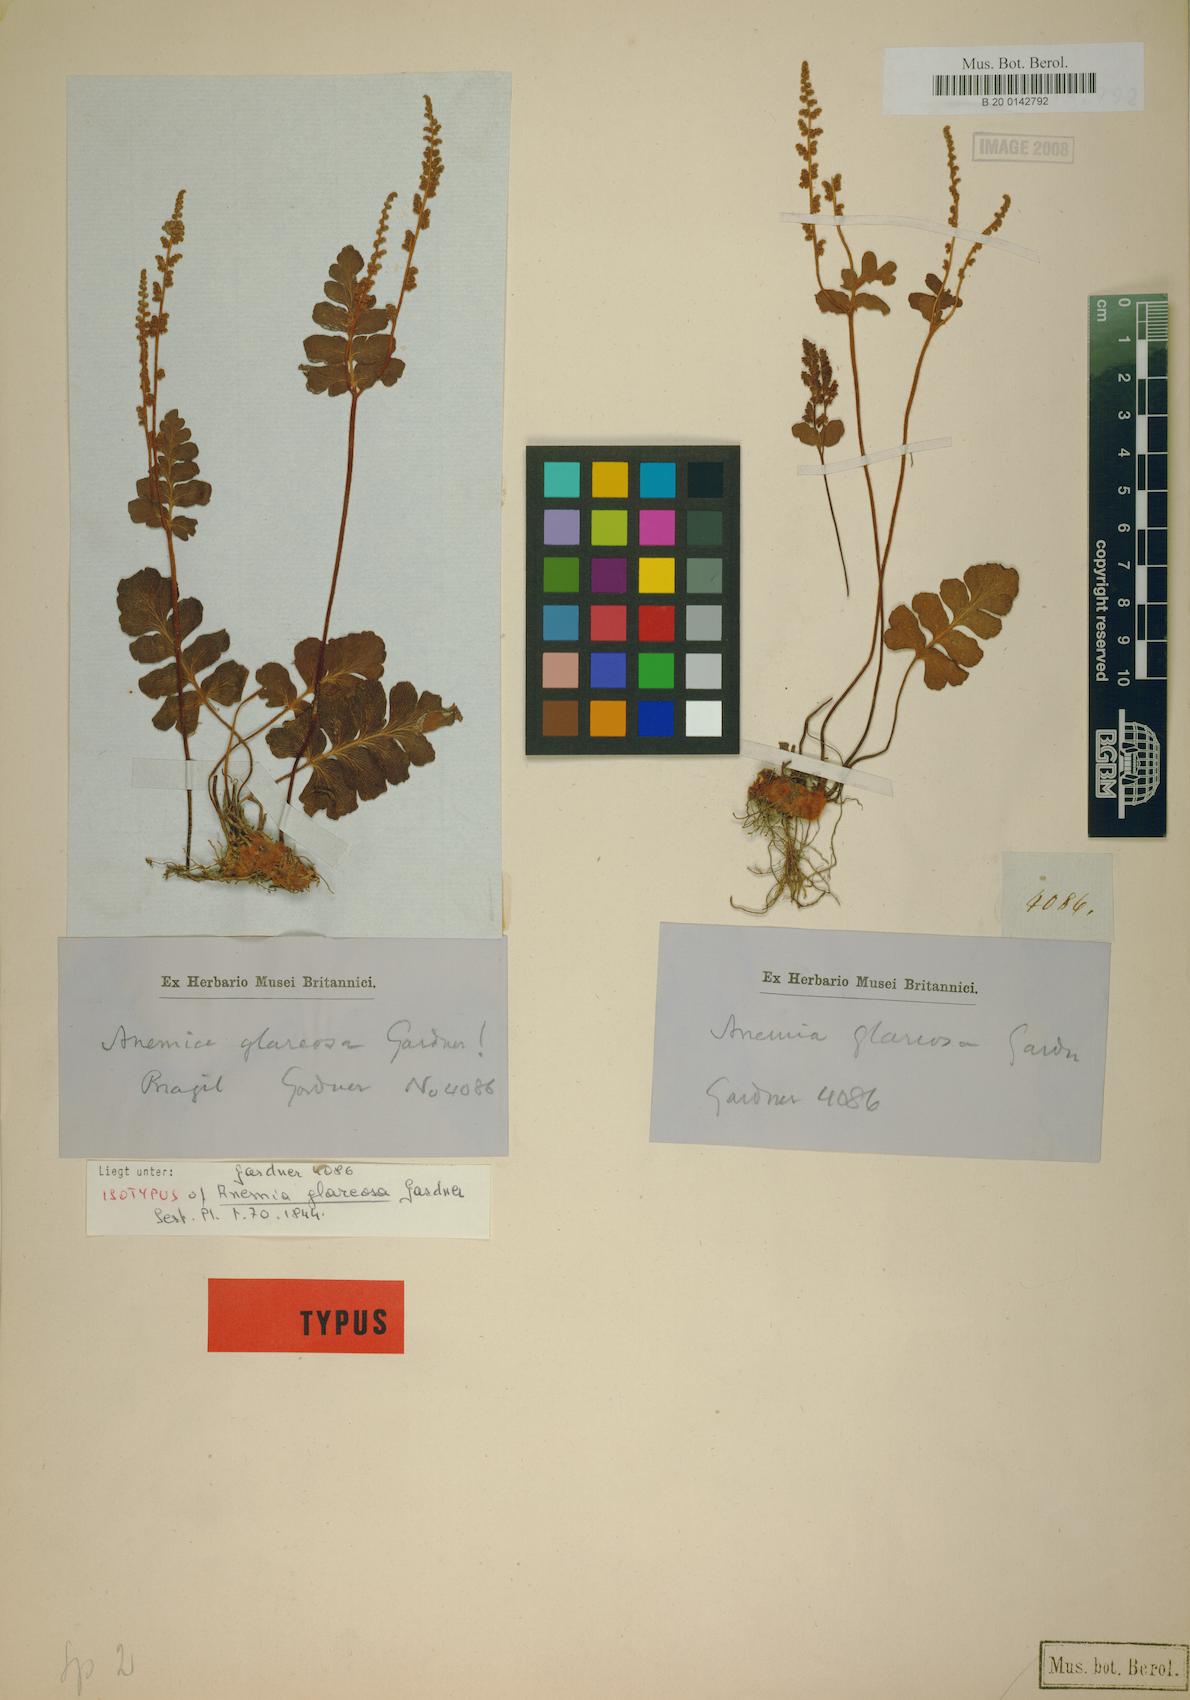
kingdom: Plantae
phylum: Tracheophyta
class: Polypodiopsida
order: Schizaeales
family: Anemiaceae
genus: Anemia
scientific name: Anemia glareosa
